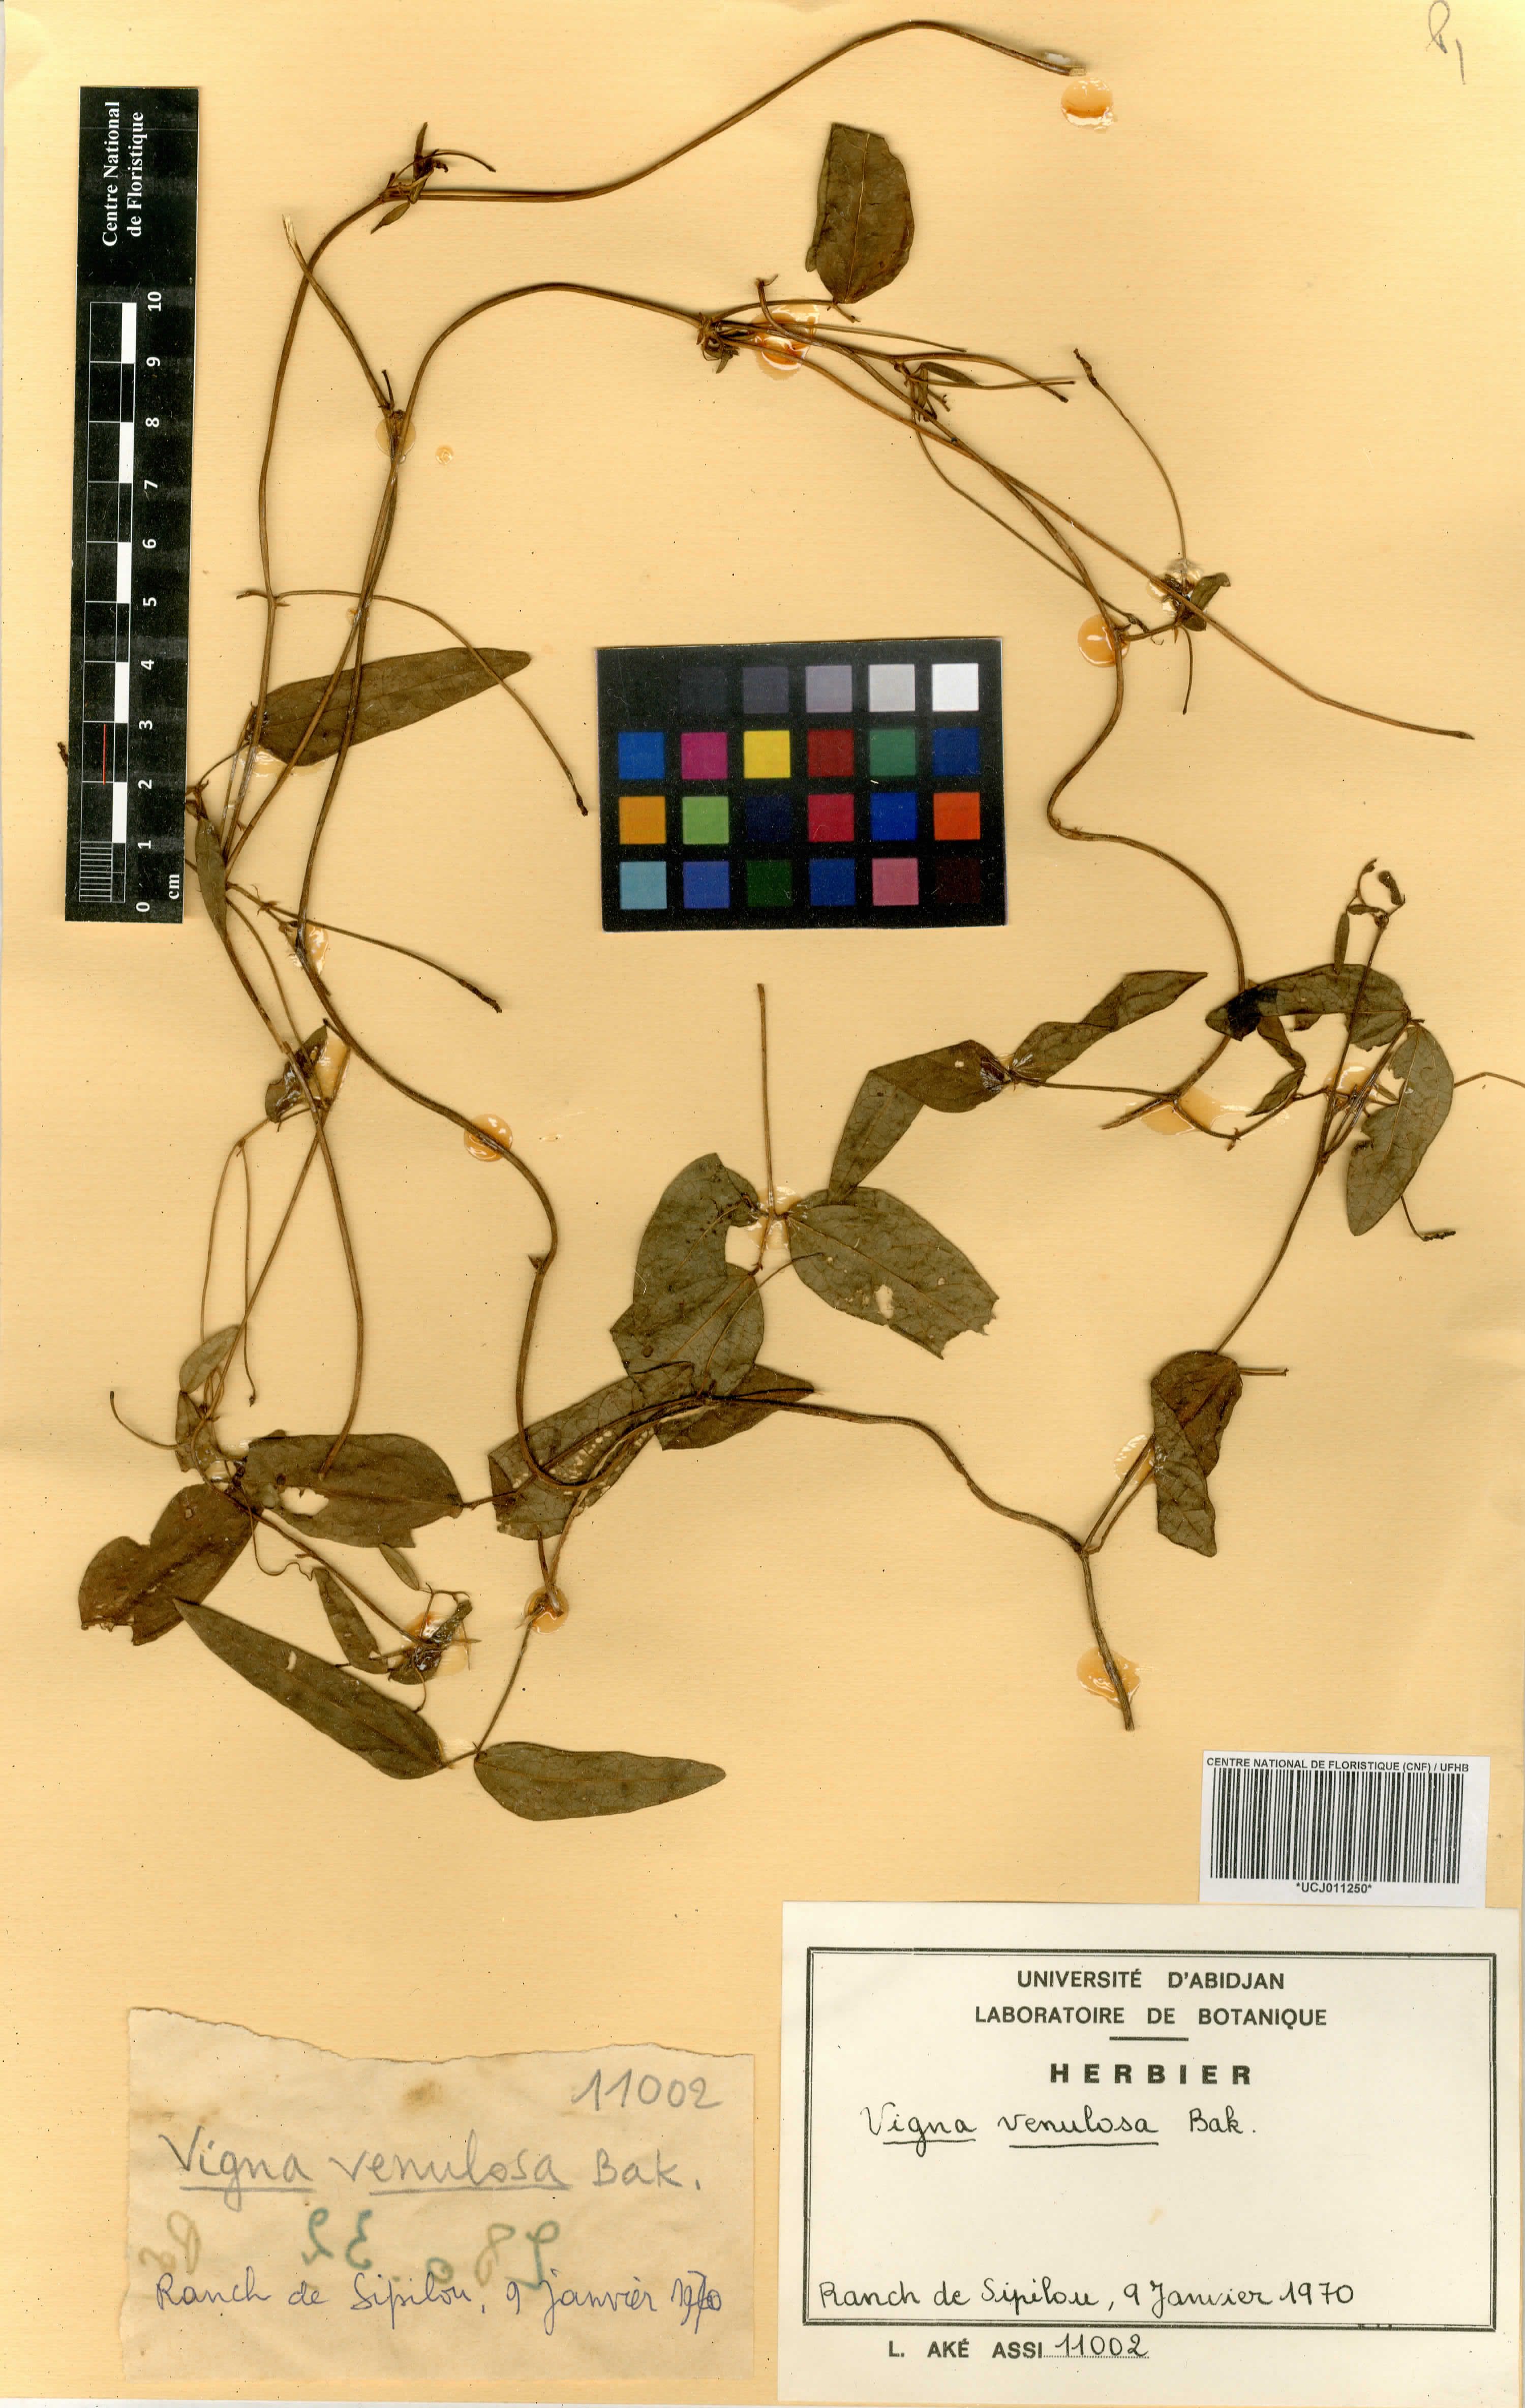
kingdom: Plantae
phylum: Tracheophyta
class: Magnoliopsida
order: Fabales
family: Fabaceae
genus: Vigna
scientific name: Vigna unguiculata
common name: Cowpea
